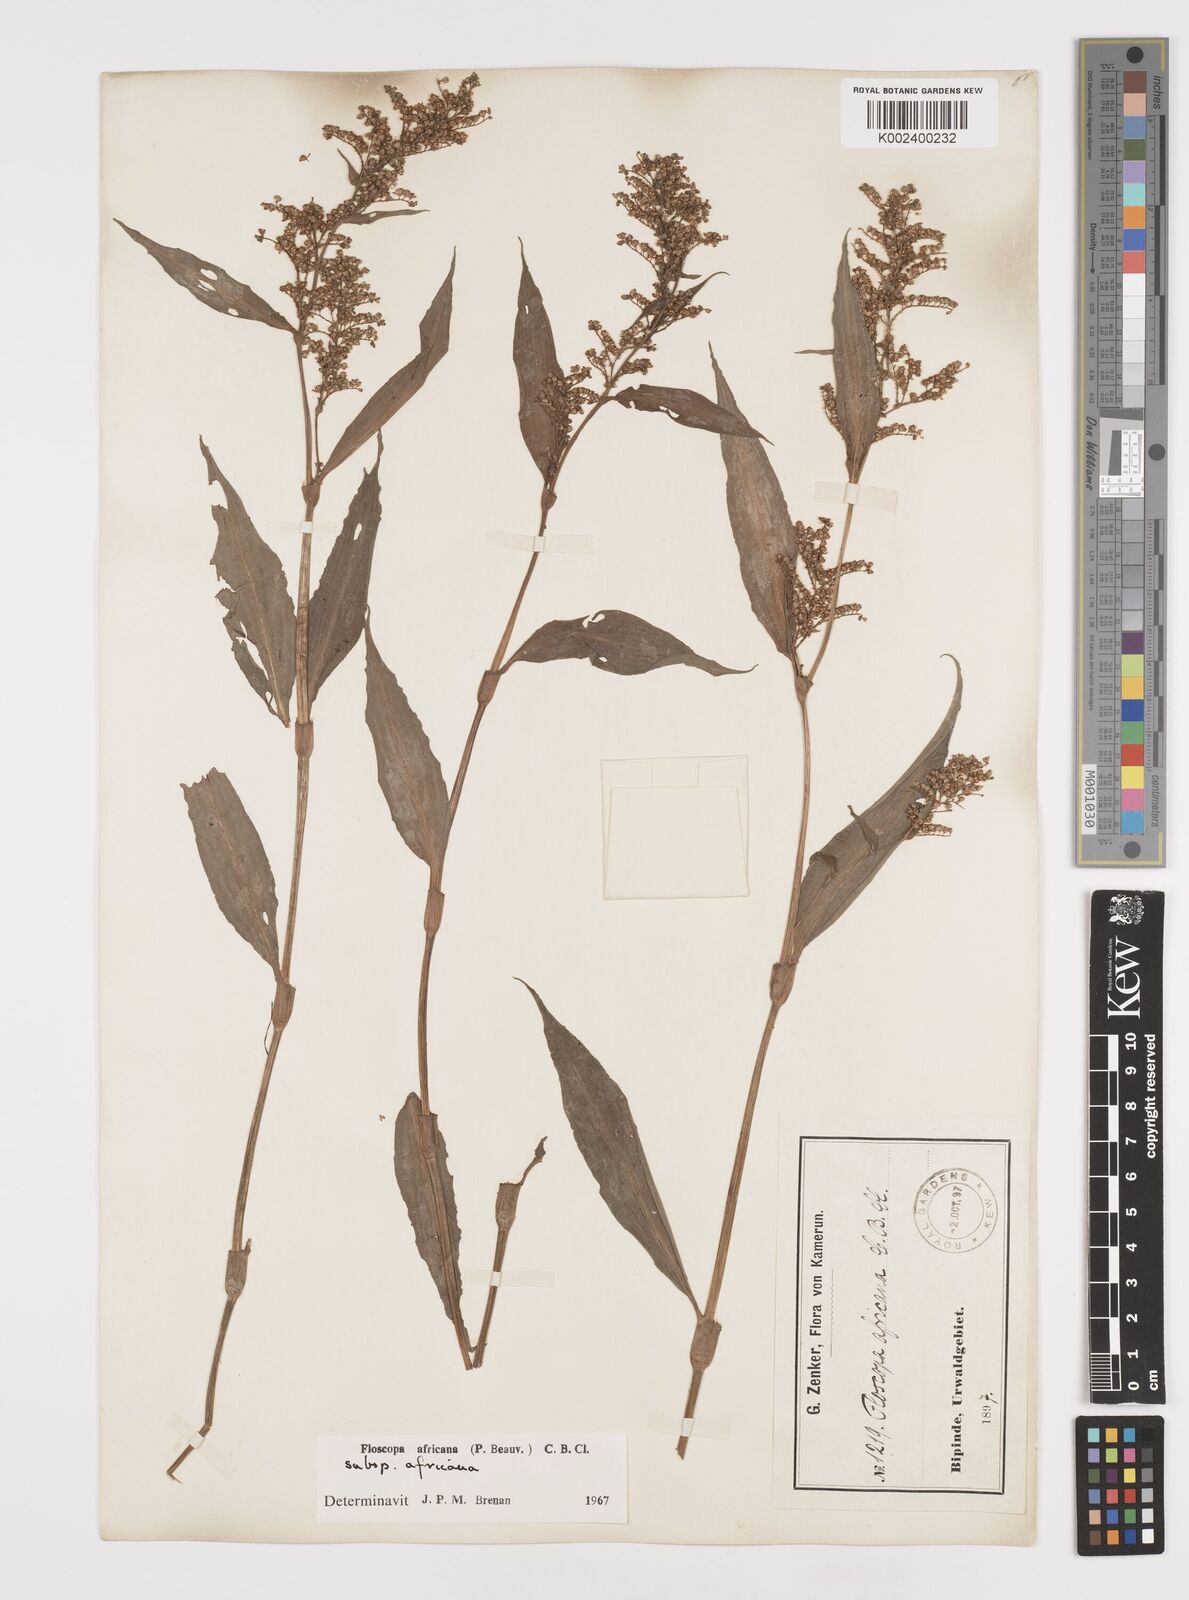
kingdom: Plantae
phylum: Tracheophyta
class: Liliopsida
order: Commelinales
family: Commelinaceae
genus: Floscopa
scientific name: Floscopa africana
